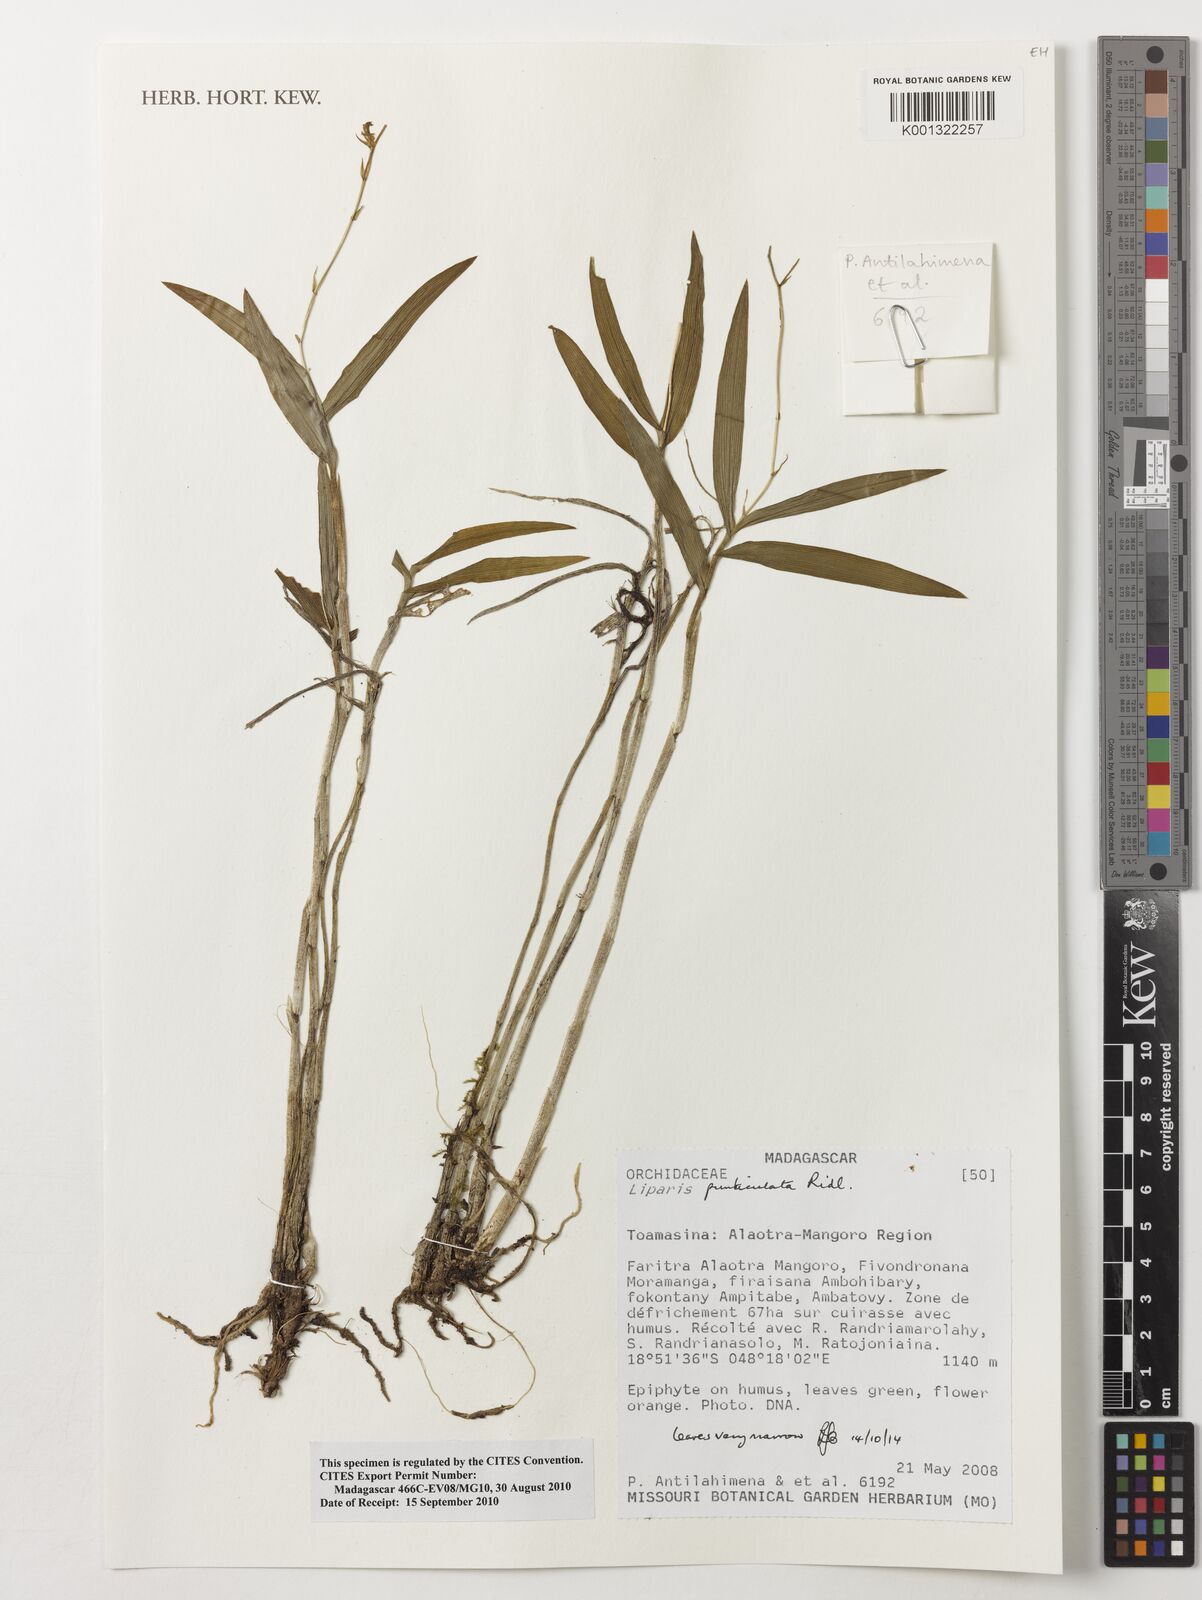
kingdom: Plantae
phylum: Tracheophyta
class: Liliopsida
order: Asparagales
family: Orchidaceae
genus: Liparis
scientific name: Liparis puncticulata
